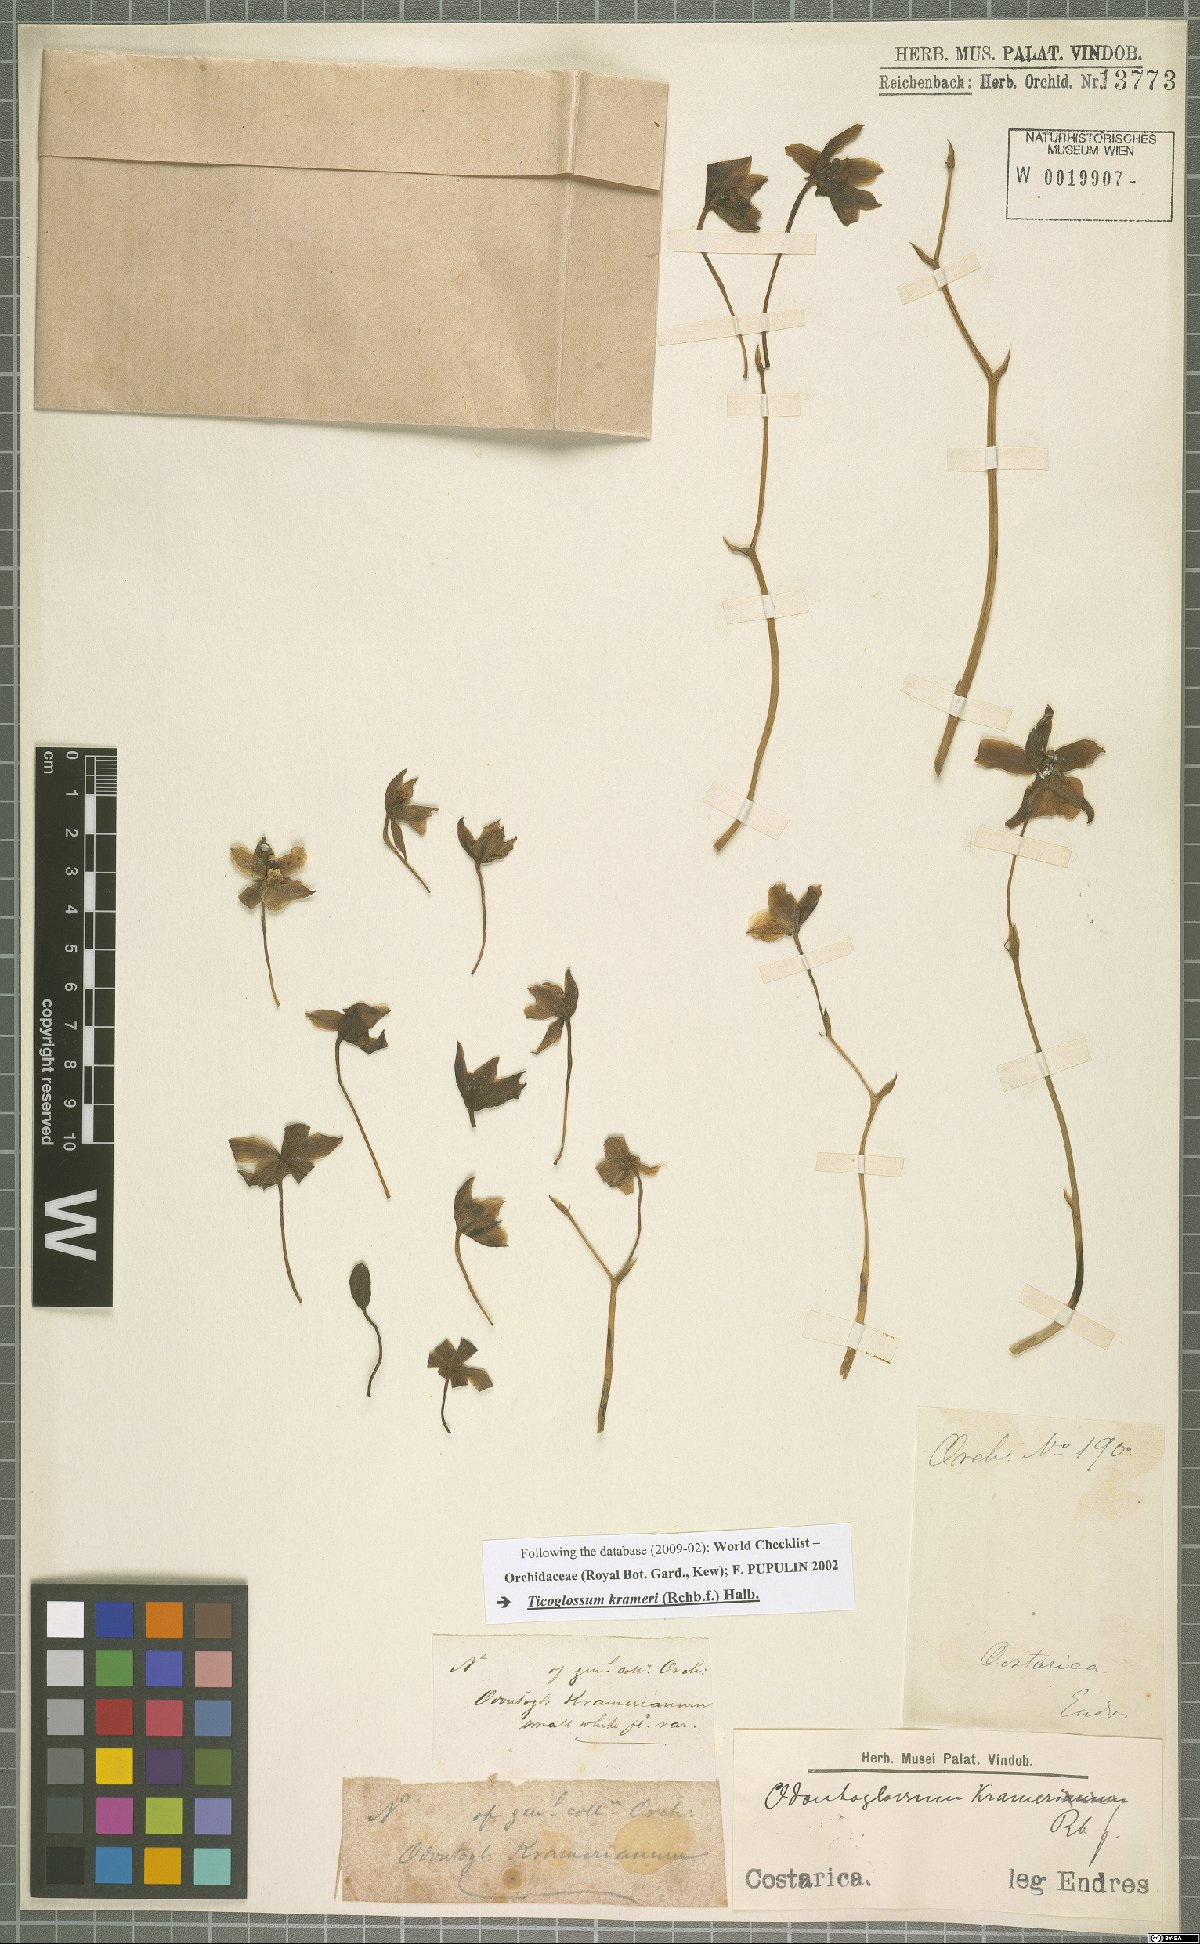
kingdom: Plantae
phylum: Tracheophyta
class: Liliopsida
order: Asparagales
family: Orchidaceae
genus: Rossioglossum
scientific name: Rossioglossum krameri
